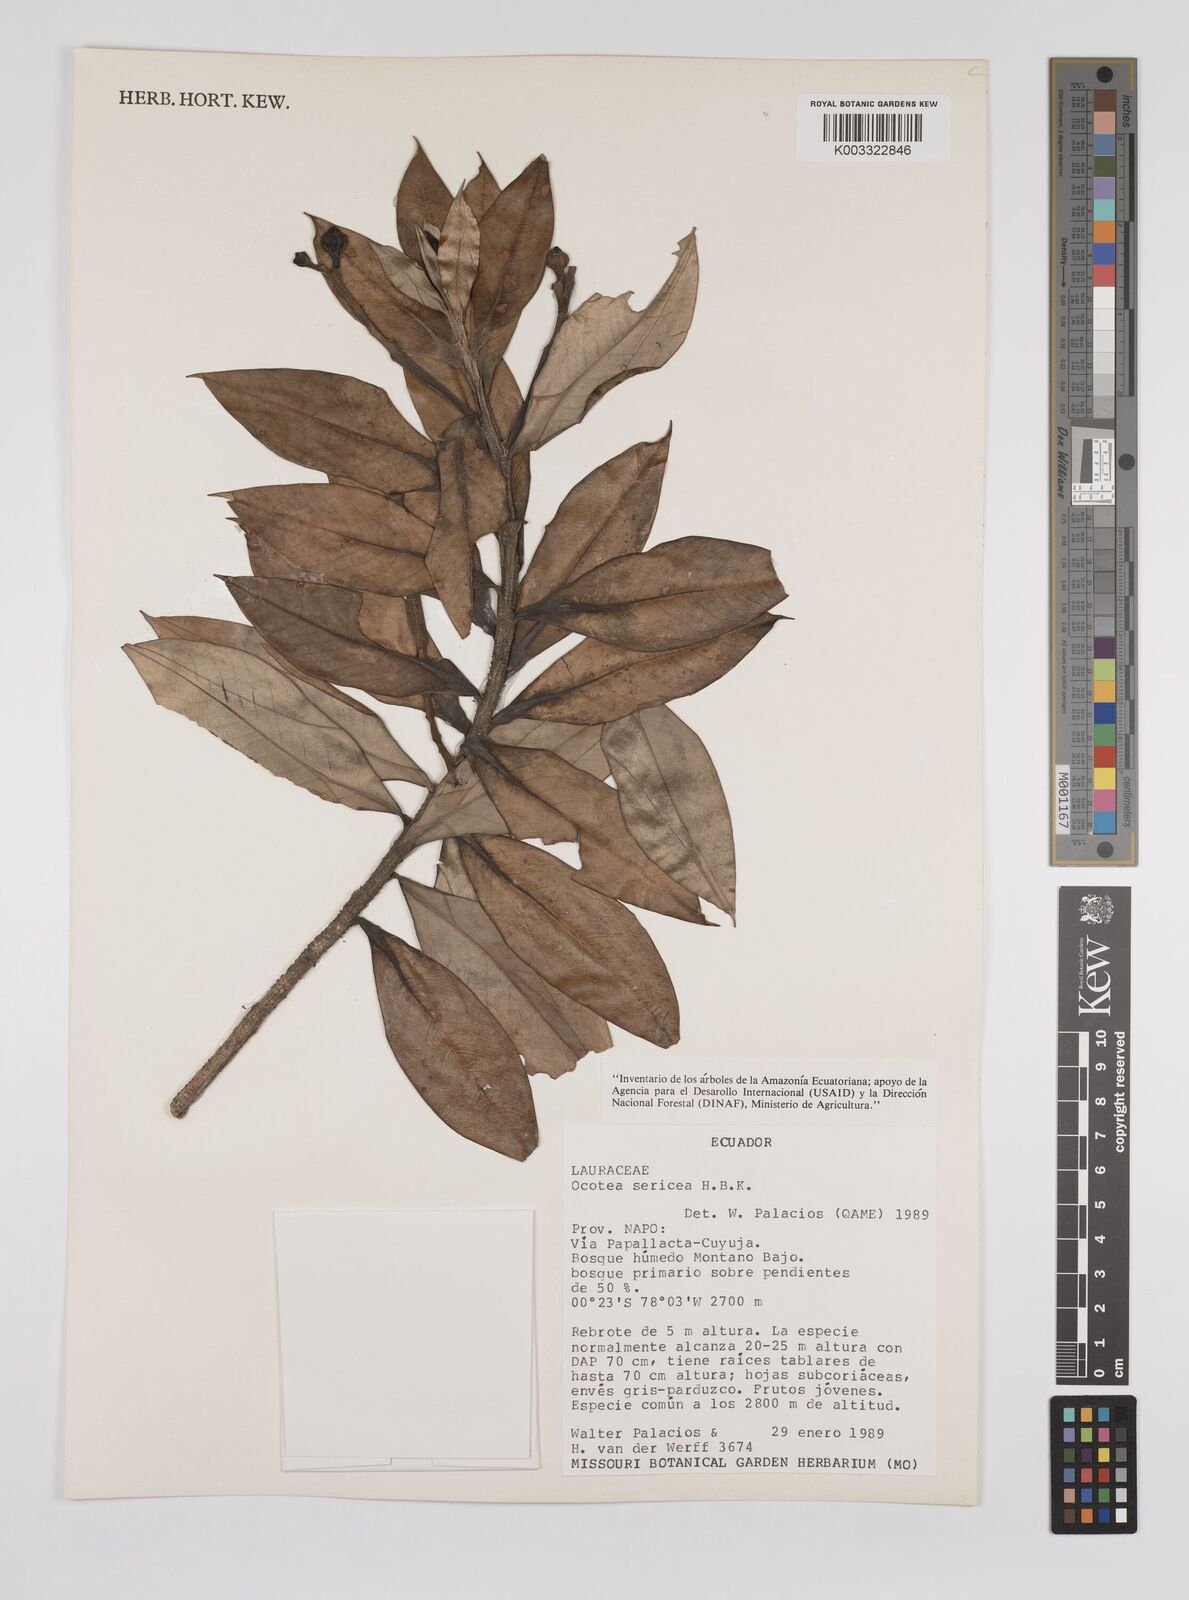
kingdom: Plantae
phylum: Tracheophyta
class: Magnoliopsida
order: Laurales
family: Lauraceae
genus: Ocotea
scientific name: Ocotea
